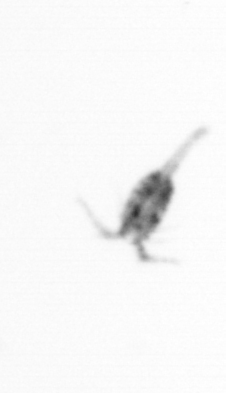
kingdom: Animalia
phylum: Arthropoda
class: Copepoda
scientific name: Copepoda
